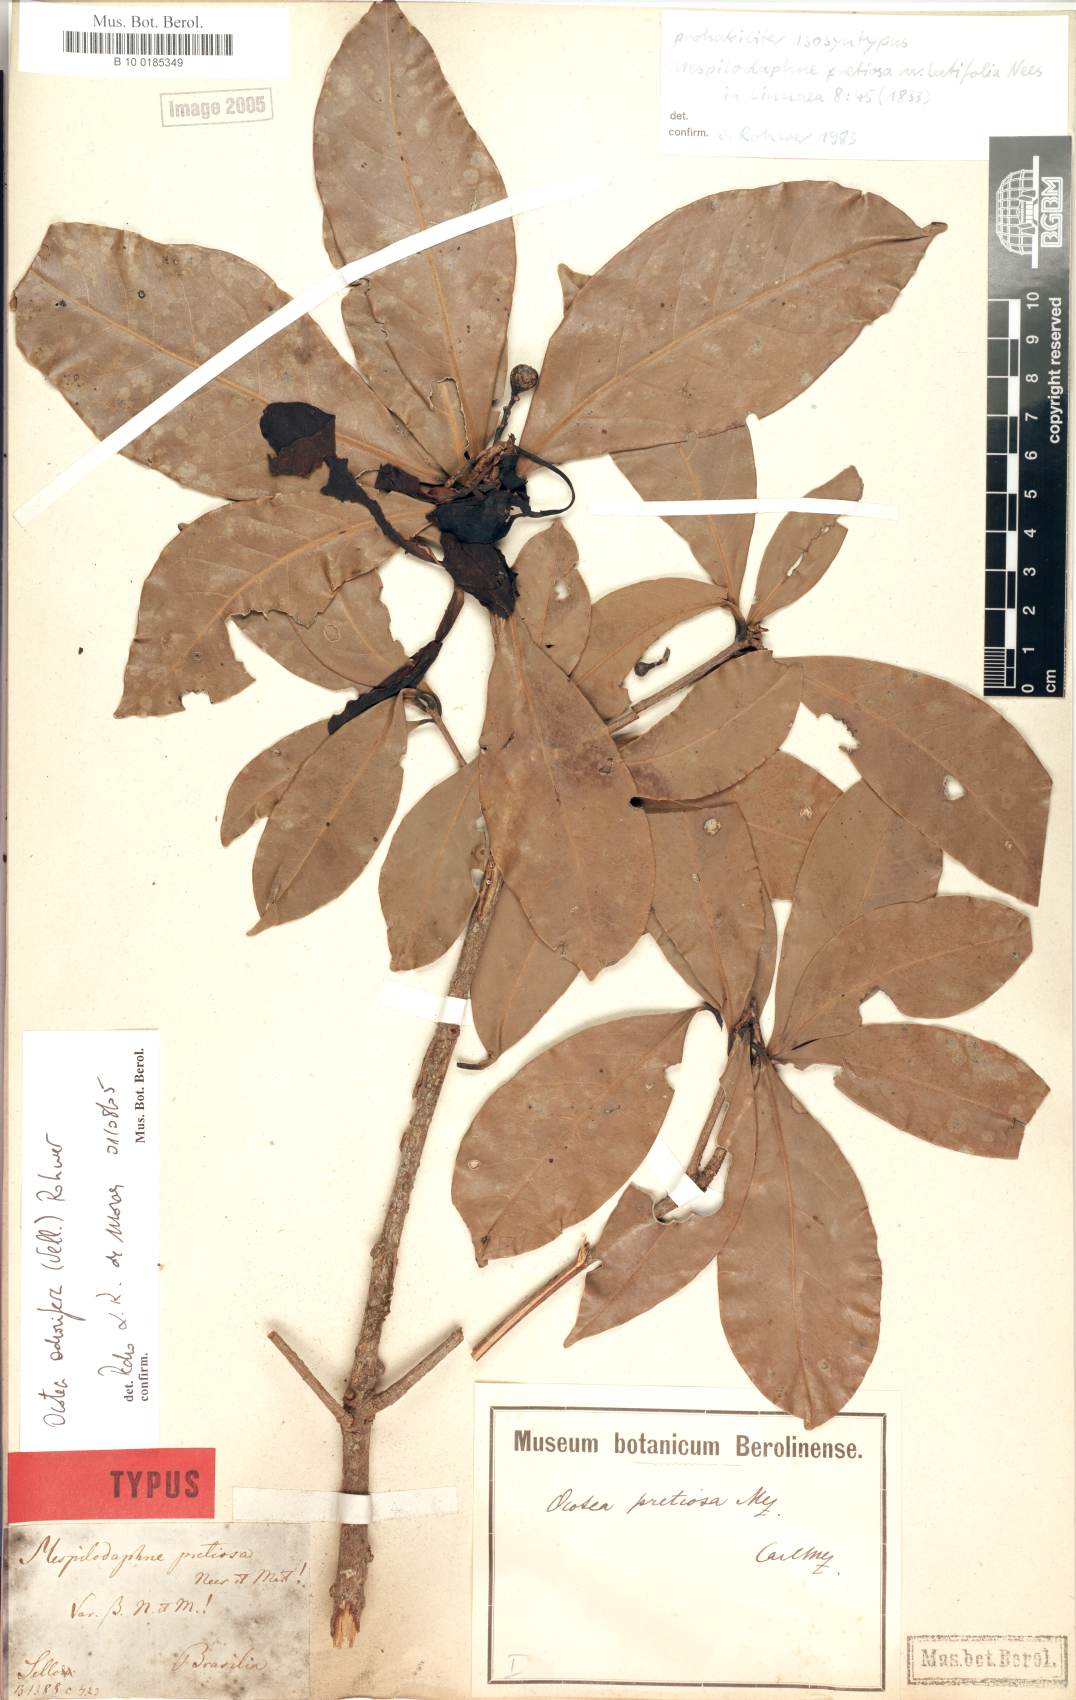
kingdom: Plantae
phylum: Tracheophyta
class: Magnoliopsida
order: Laurales
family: Lauraceae
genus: Mespilodaphne
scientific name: Mespilodaphne quixos
